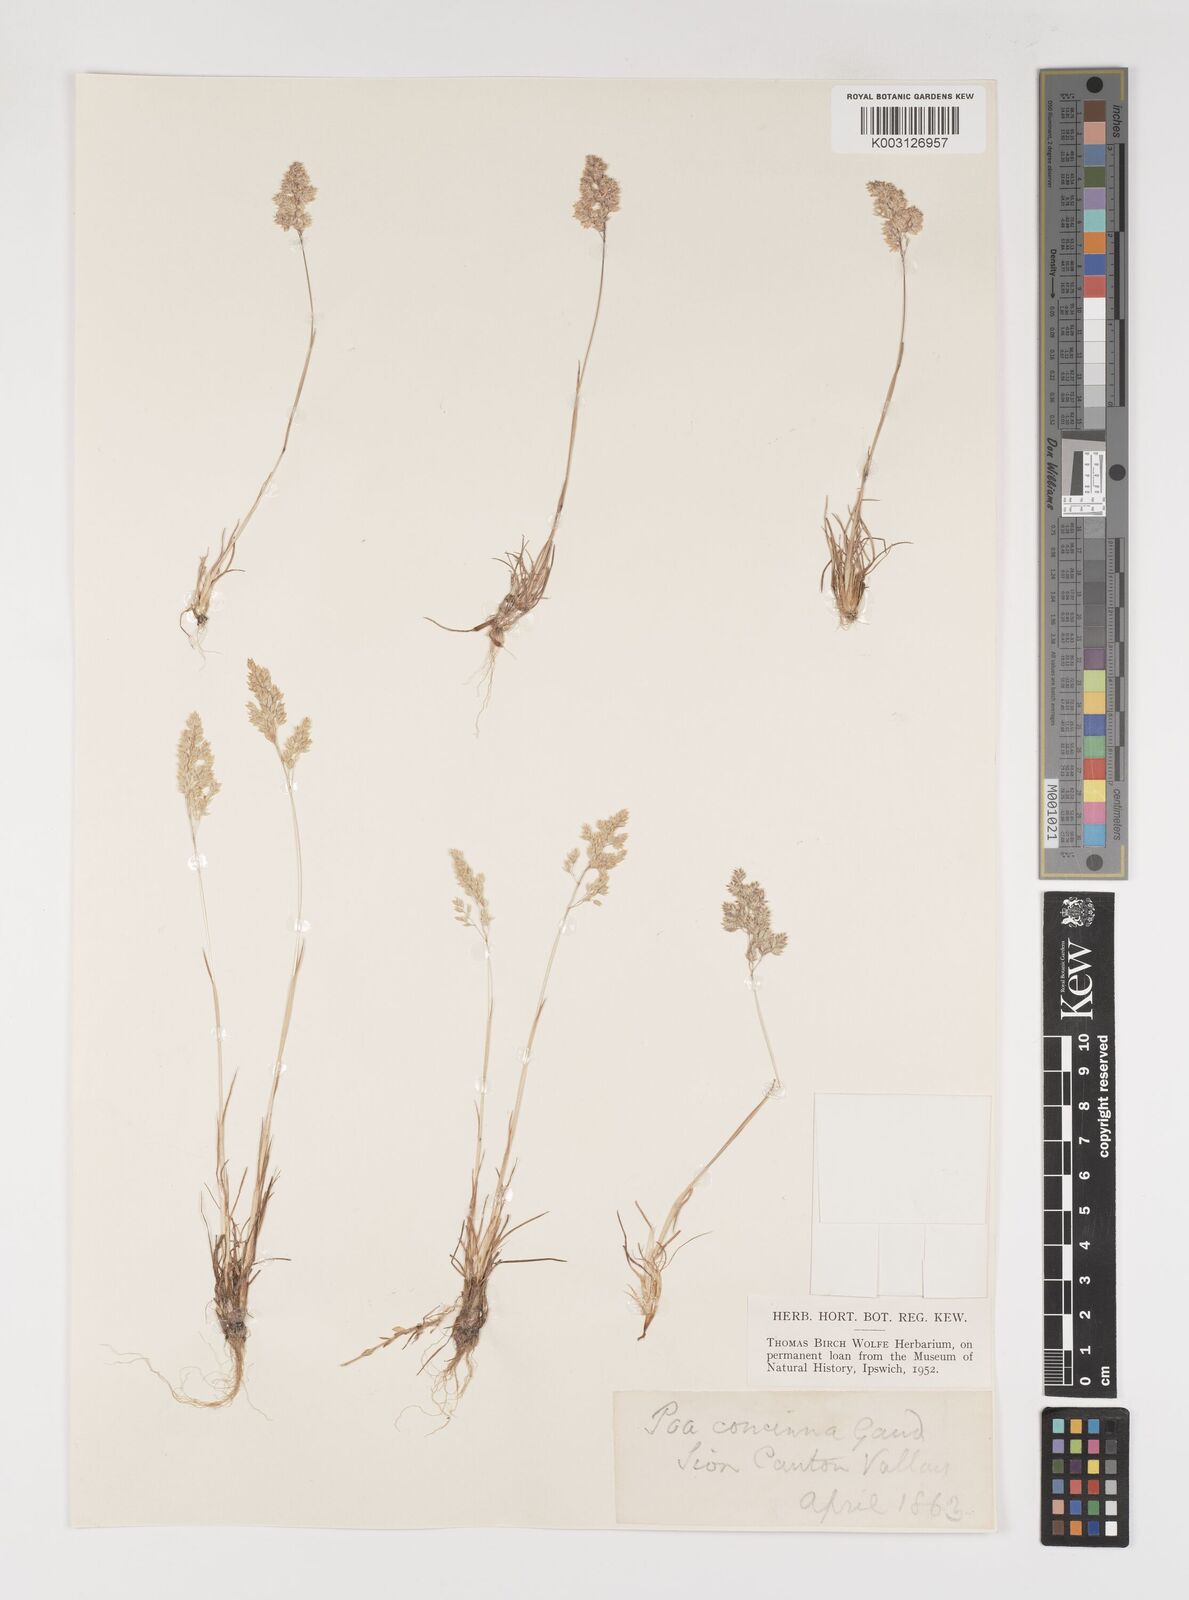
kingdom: Plantae
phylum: Tracheophyta
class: Liliopsida
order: Poales
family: Poaceae
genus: Poa
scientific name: Poa perconcinna
